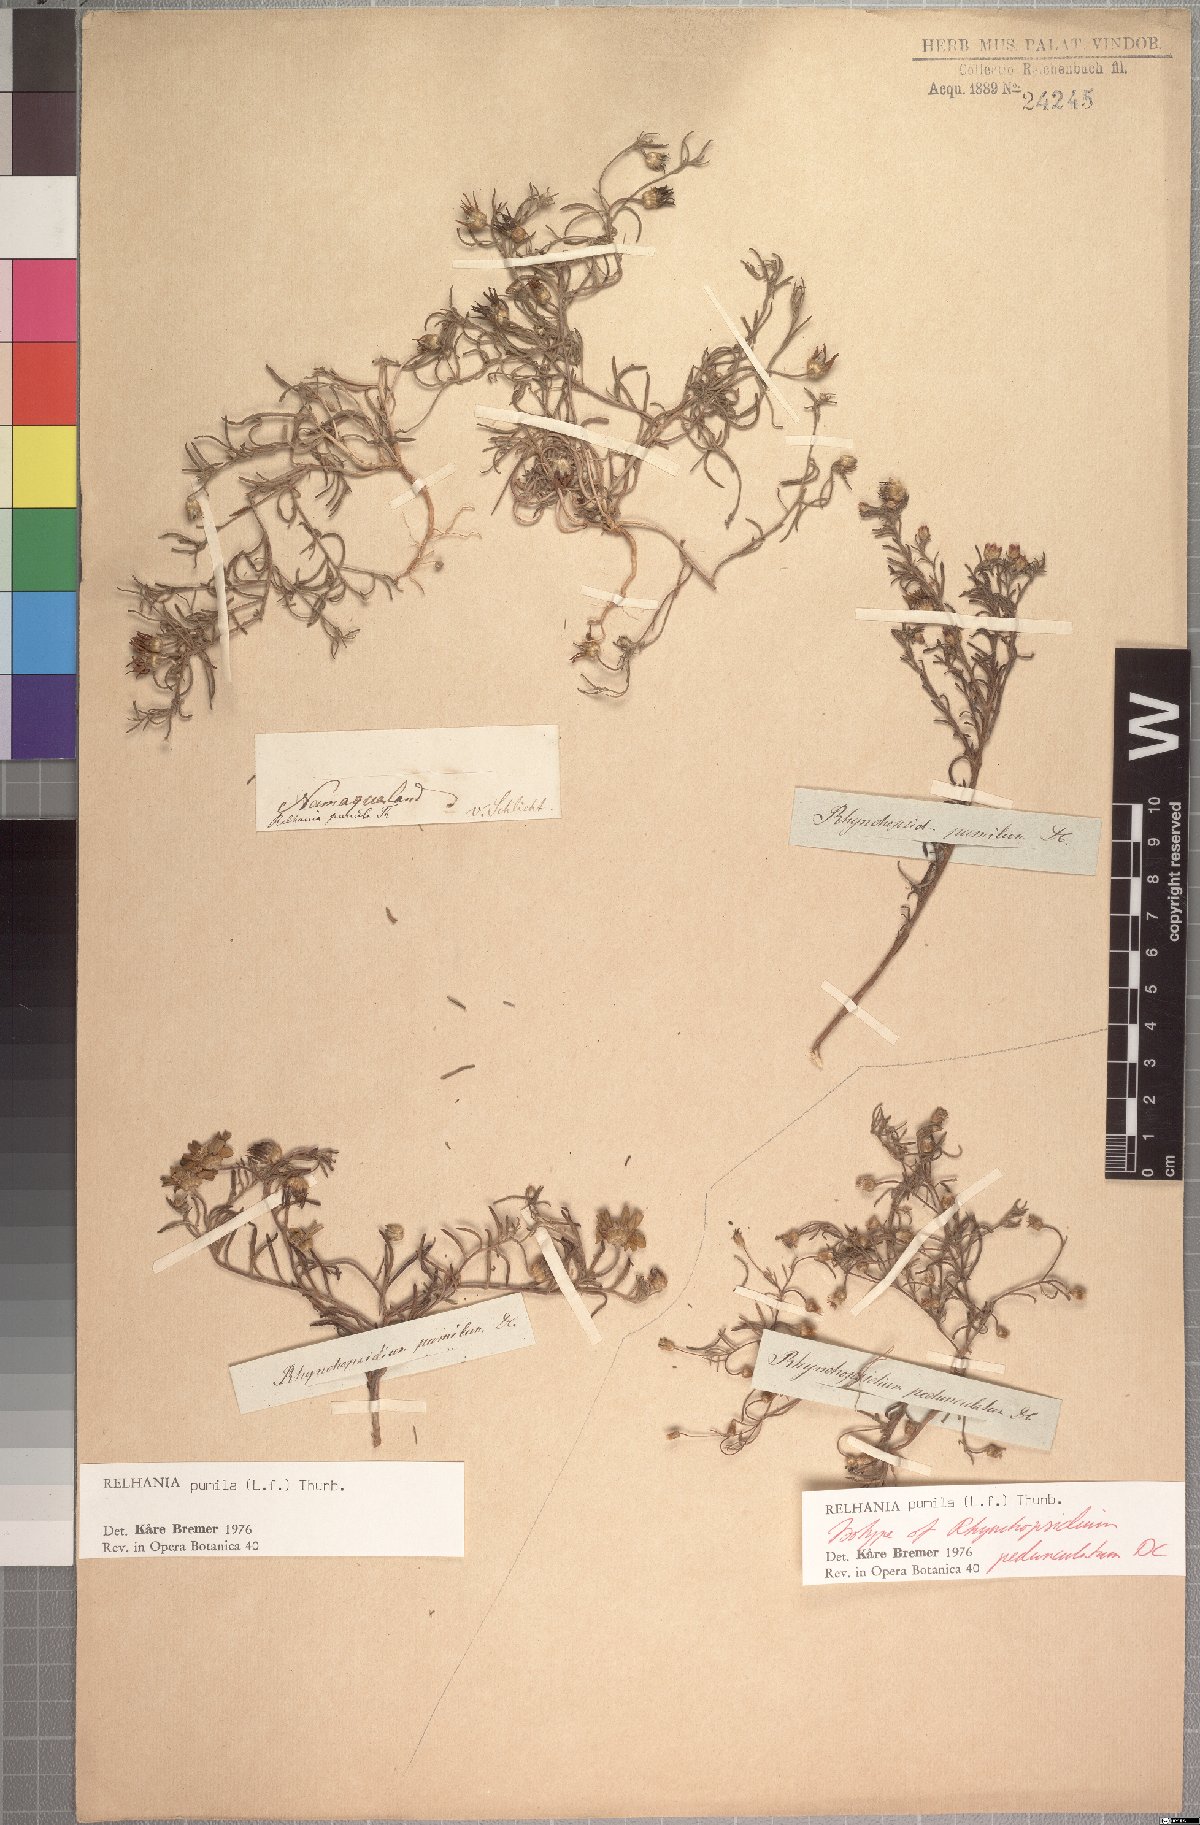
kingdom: Plantae
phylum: Tracheophyta
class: Magnoliopsida
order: Asterales
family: Asteraceae
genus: Rhynchopsidium
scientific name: Rhynchopsidium pumilum
